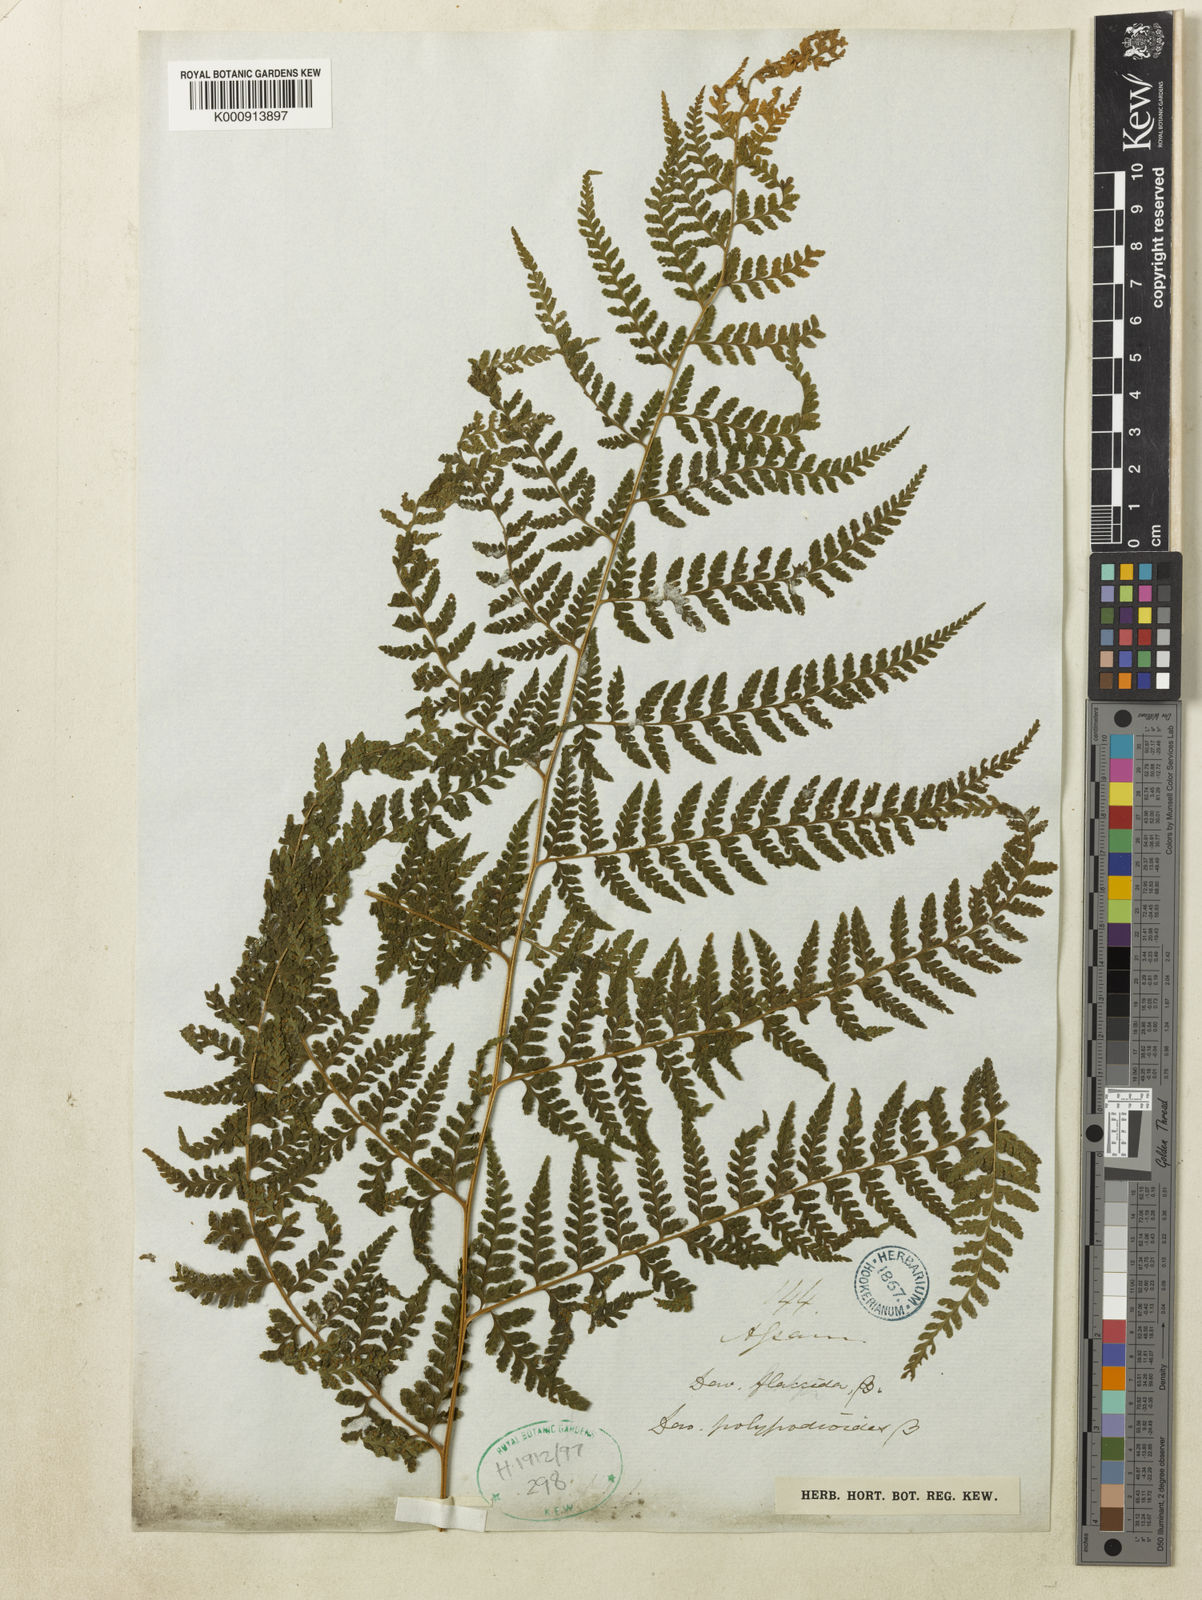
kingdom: Plantae
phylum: Tracheophyta
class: Polypodiopsida
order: Polypodiales
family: Dennstaedtiaceae
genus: Microlepia
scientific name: Microlepia rhomboidea
